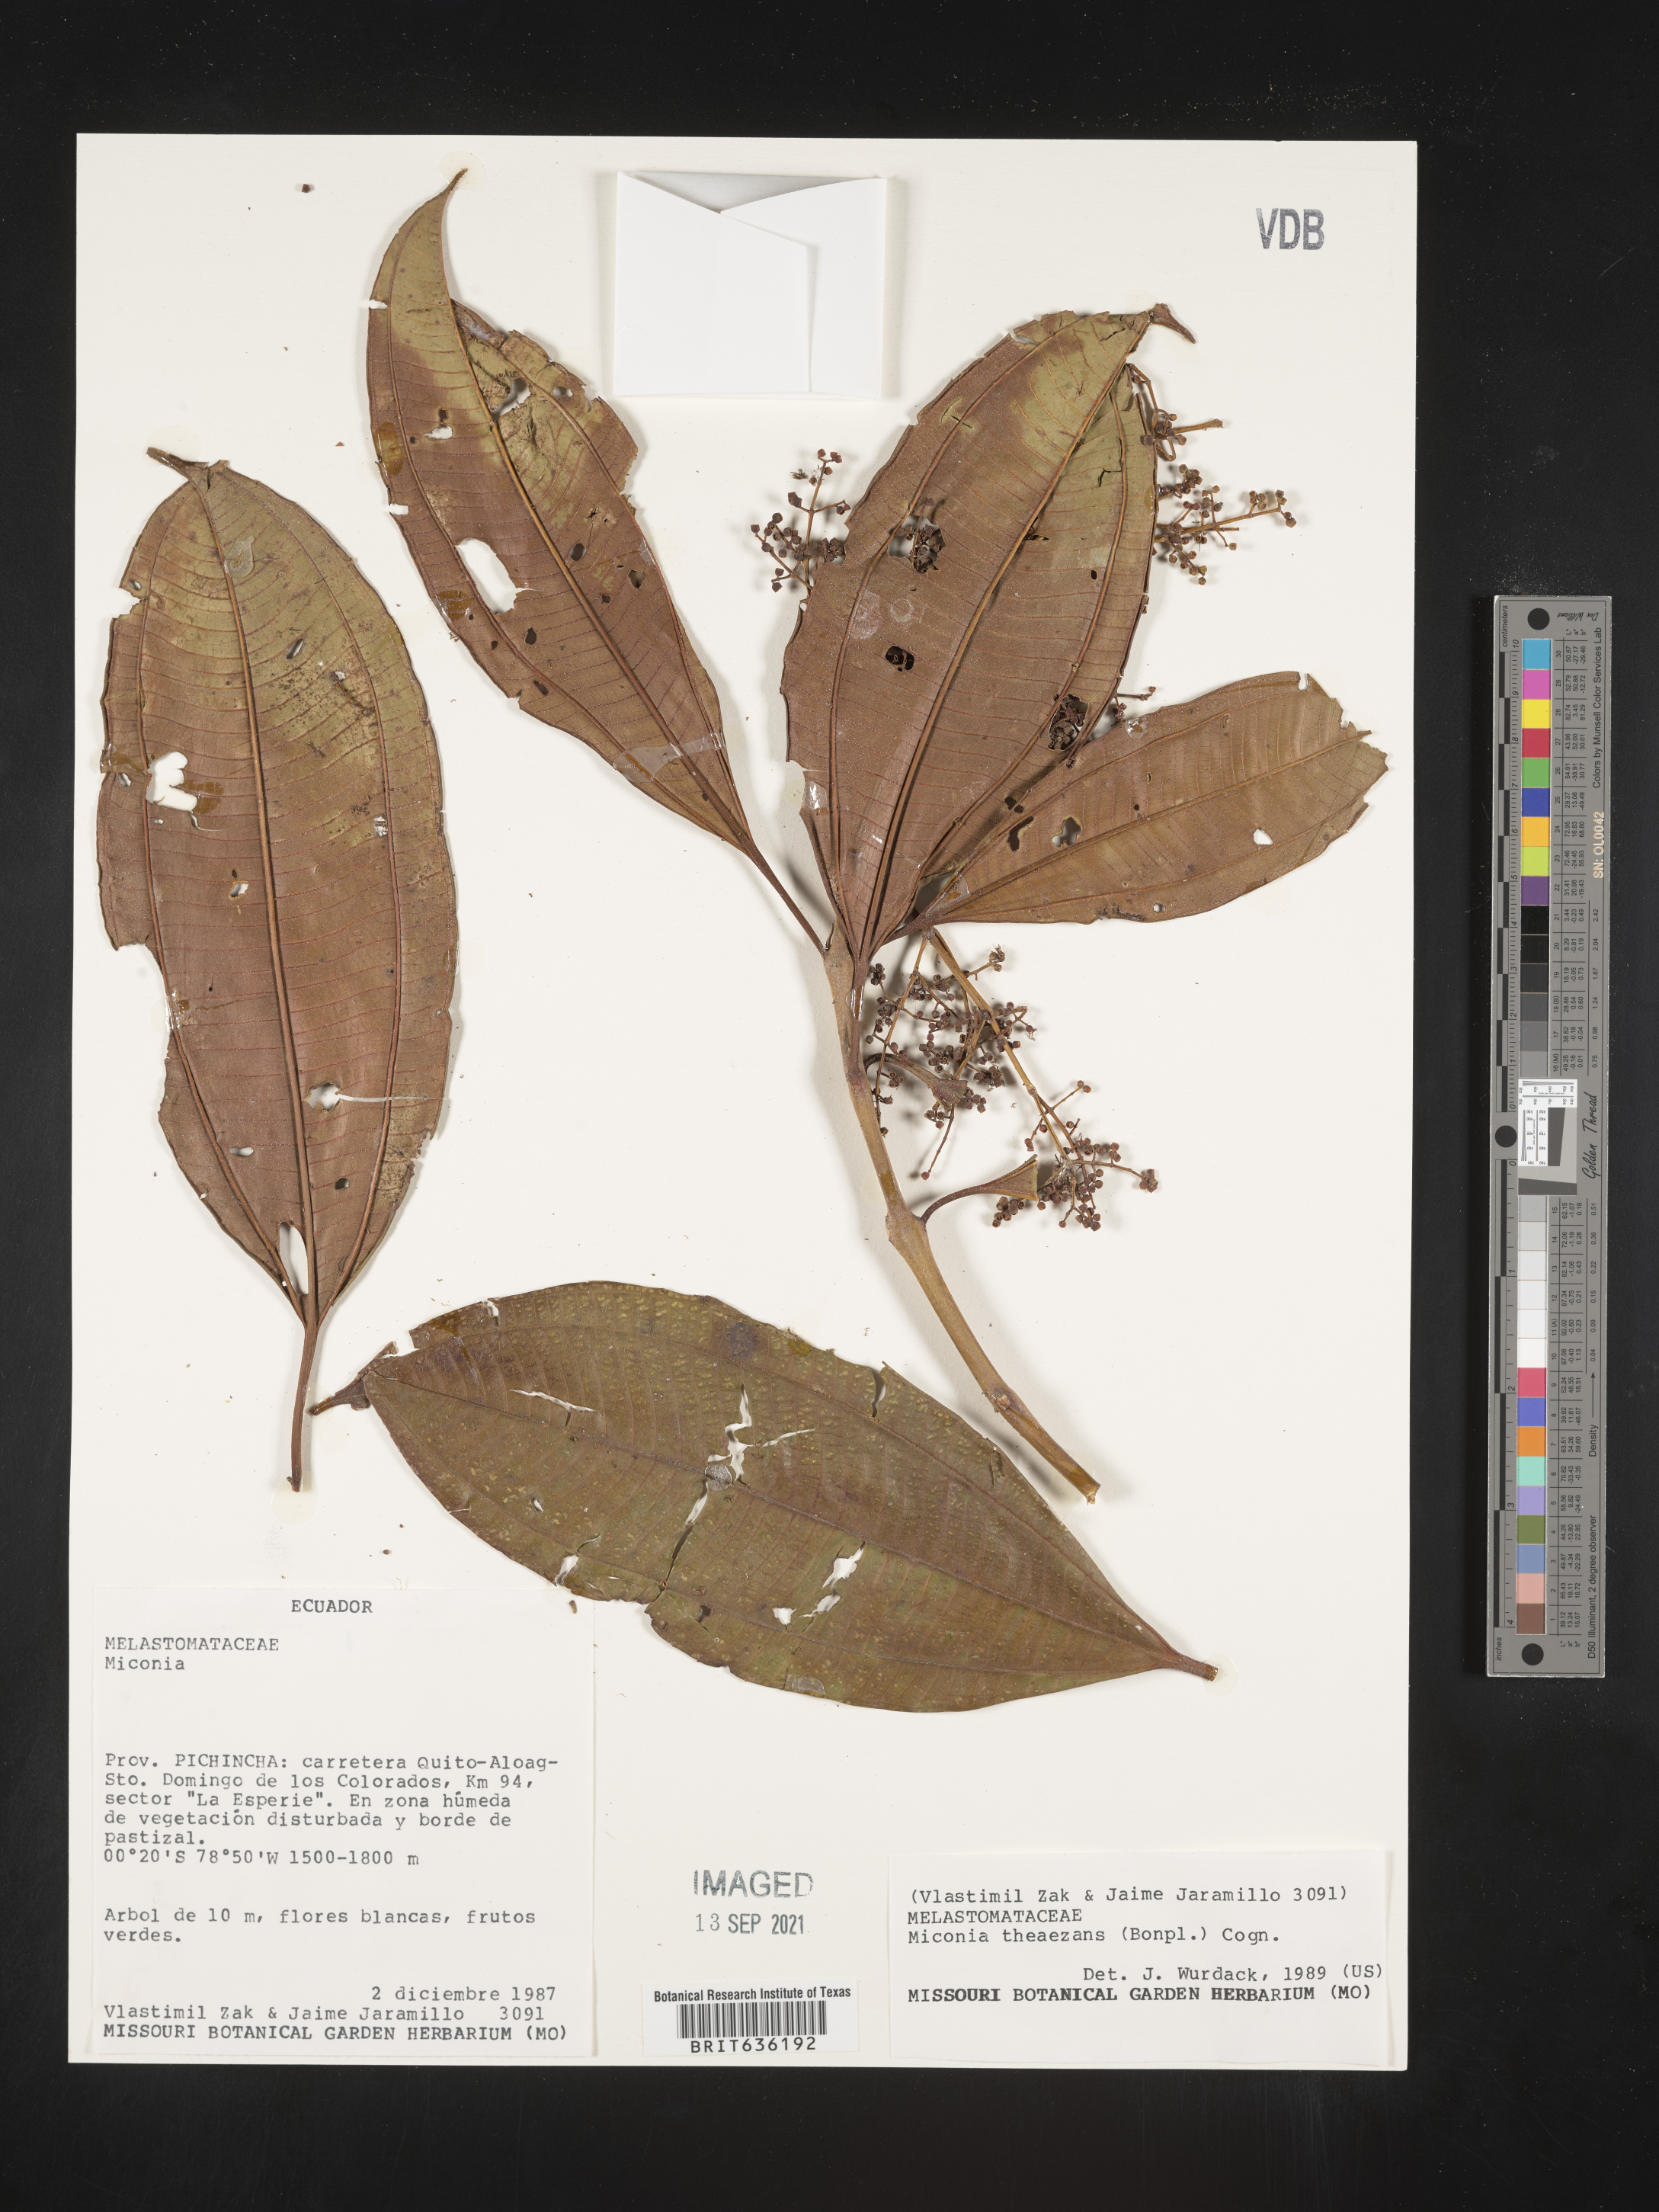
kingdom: Plantae
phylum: Tracheophyta
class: Magnoliopsida
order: Myrtales
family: Melastomataceae
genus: Miconia
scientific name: Miconia
